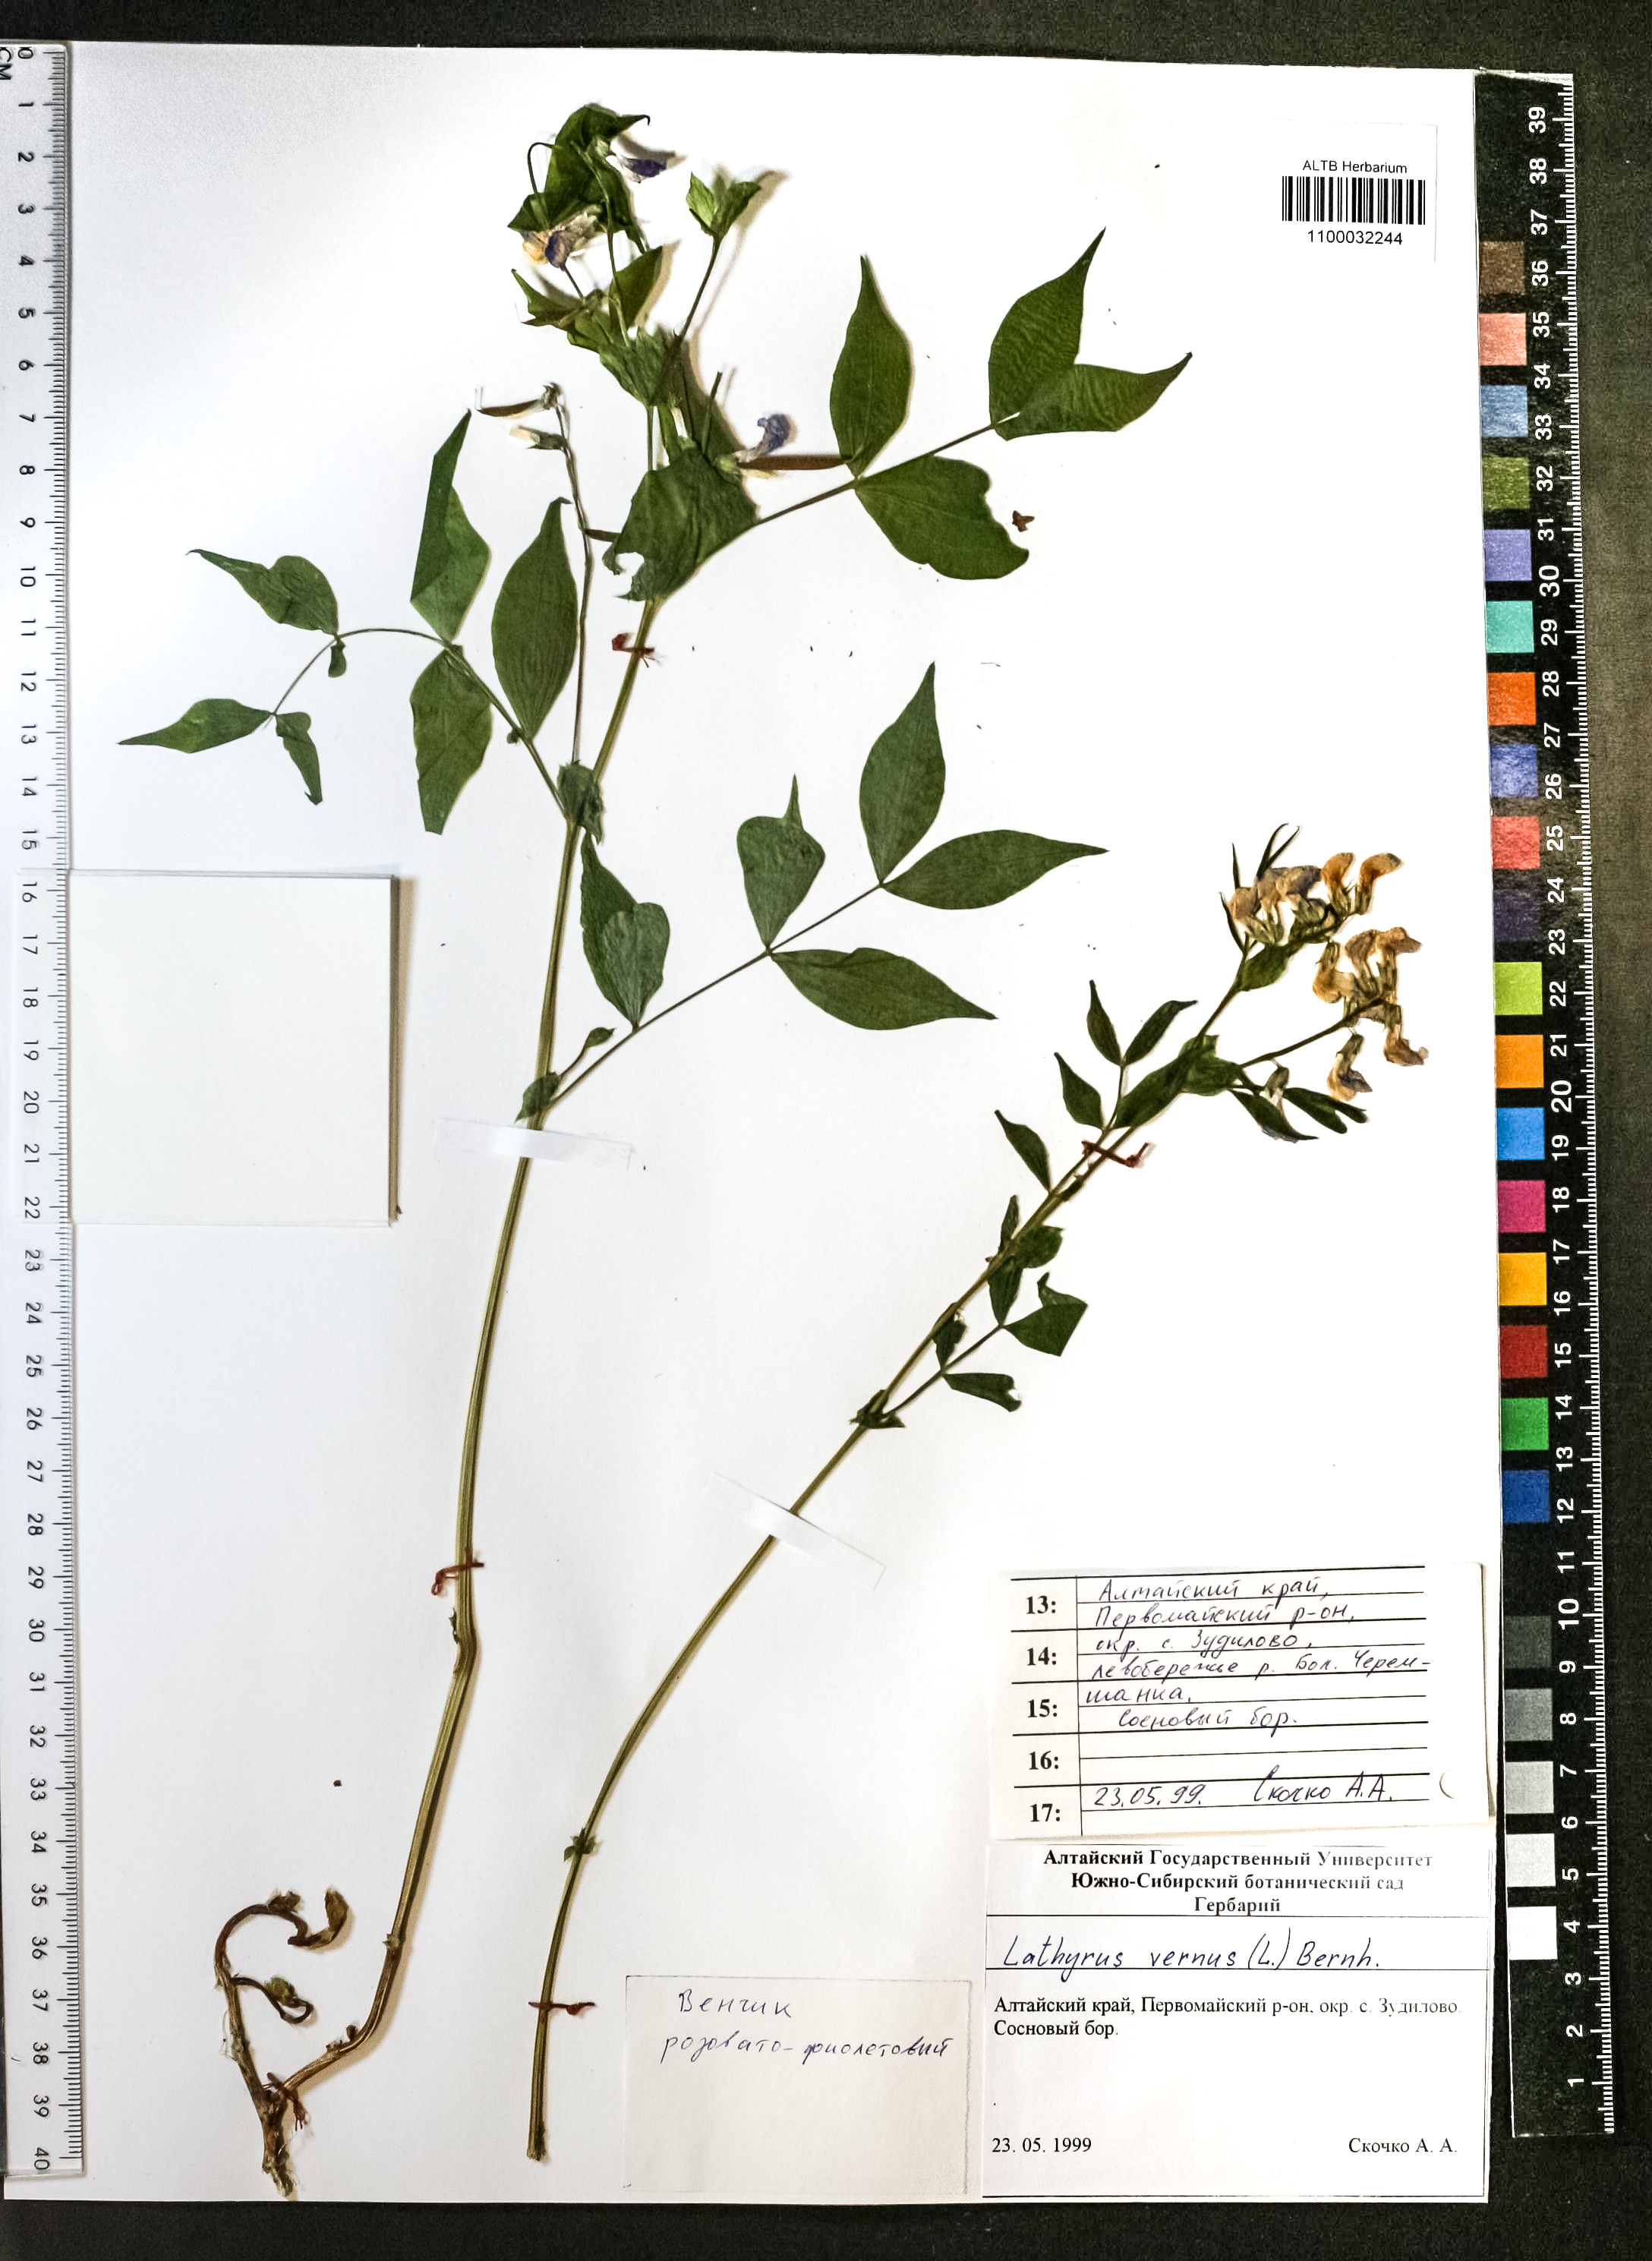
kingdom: Plantae
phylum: Tracheophyta
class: Magnoliopsida
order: Fabales
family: Fabaceae
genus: Lathyrus
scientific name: Lathyrus vernus
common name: Spring pea
